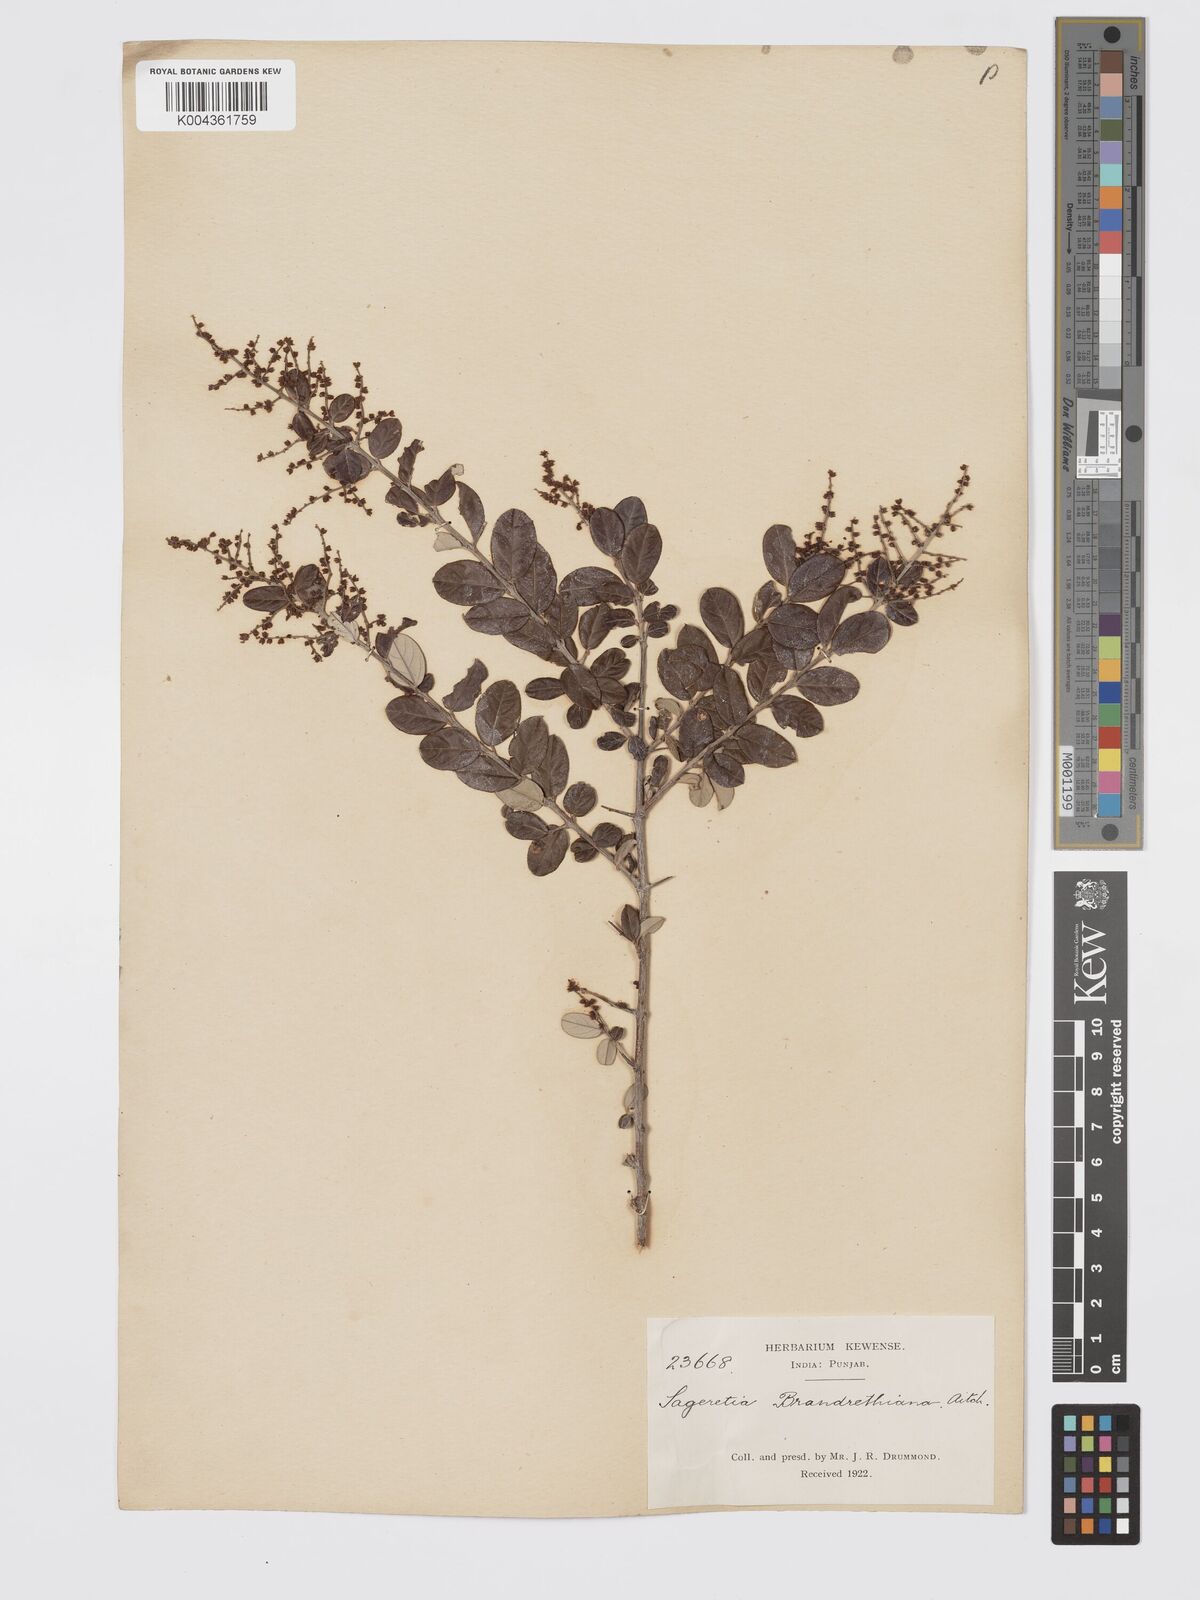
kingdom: Plantae
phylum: Tracheophyta
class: Magnoliopsida
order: Rosales
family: Rhamnaceae
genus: Sageretia
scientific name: Sageretia brandrethiana
